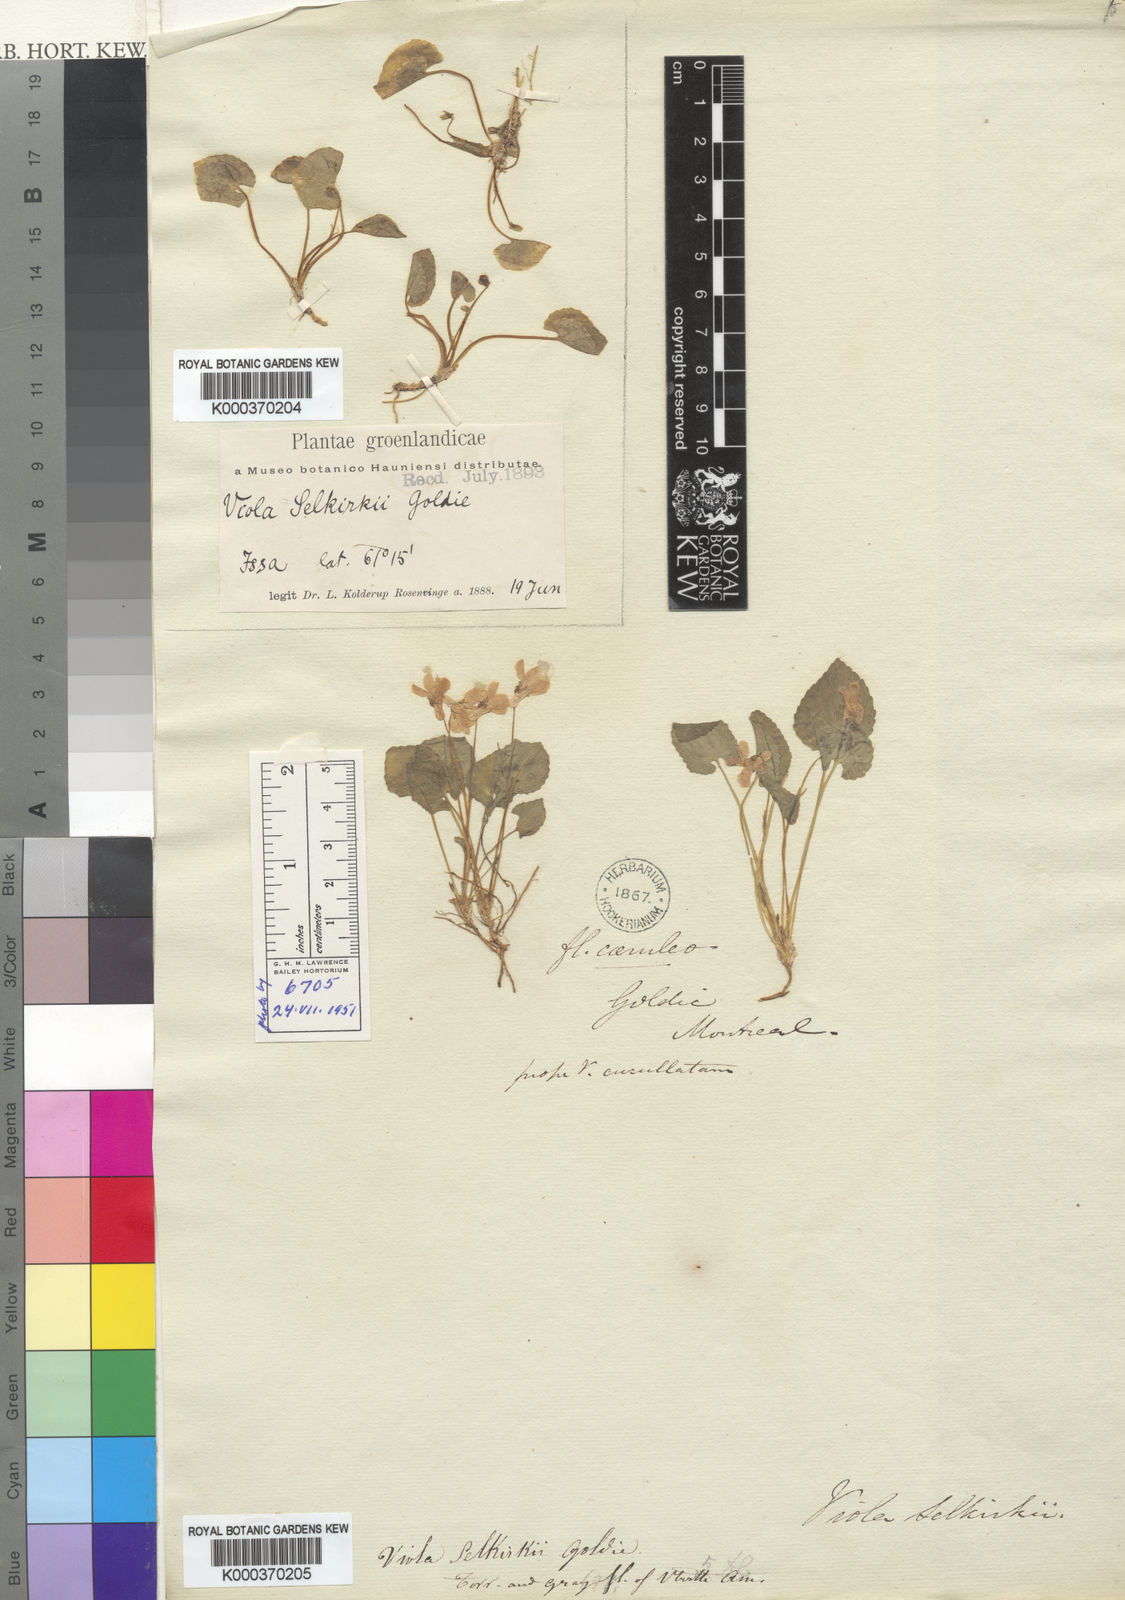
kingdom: Plantae
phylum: Tracheophyta
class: Magnoliopsida
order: Malpighiales
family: Violaceae
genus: Viola
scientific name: Viola selkirkii
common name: Selkirk's violet
